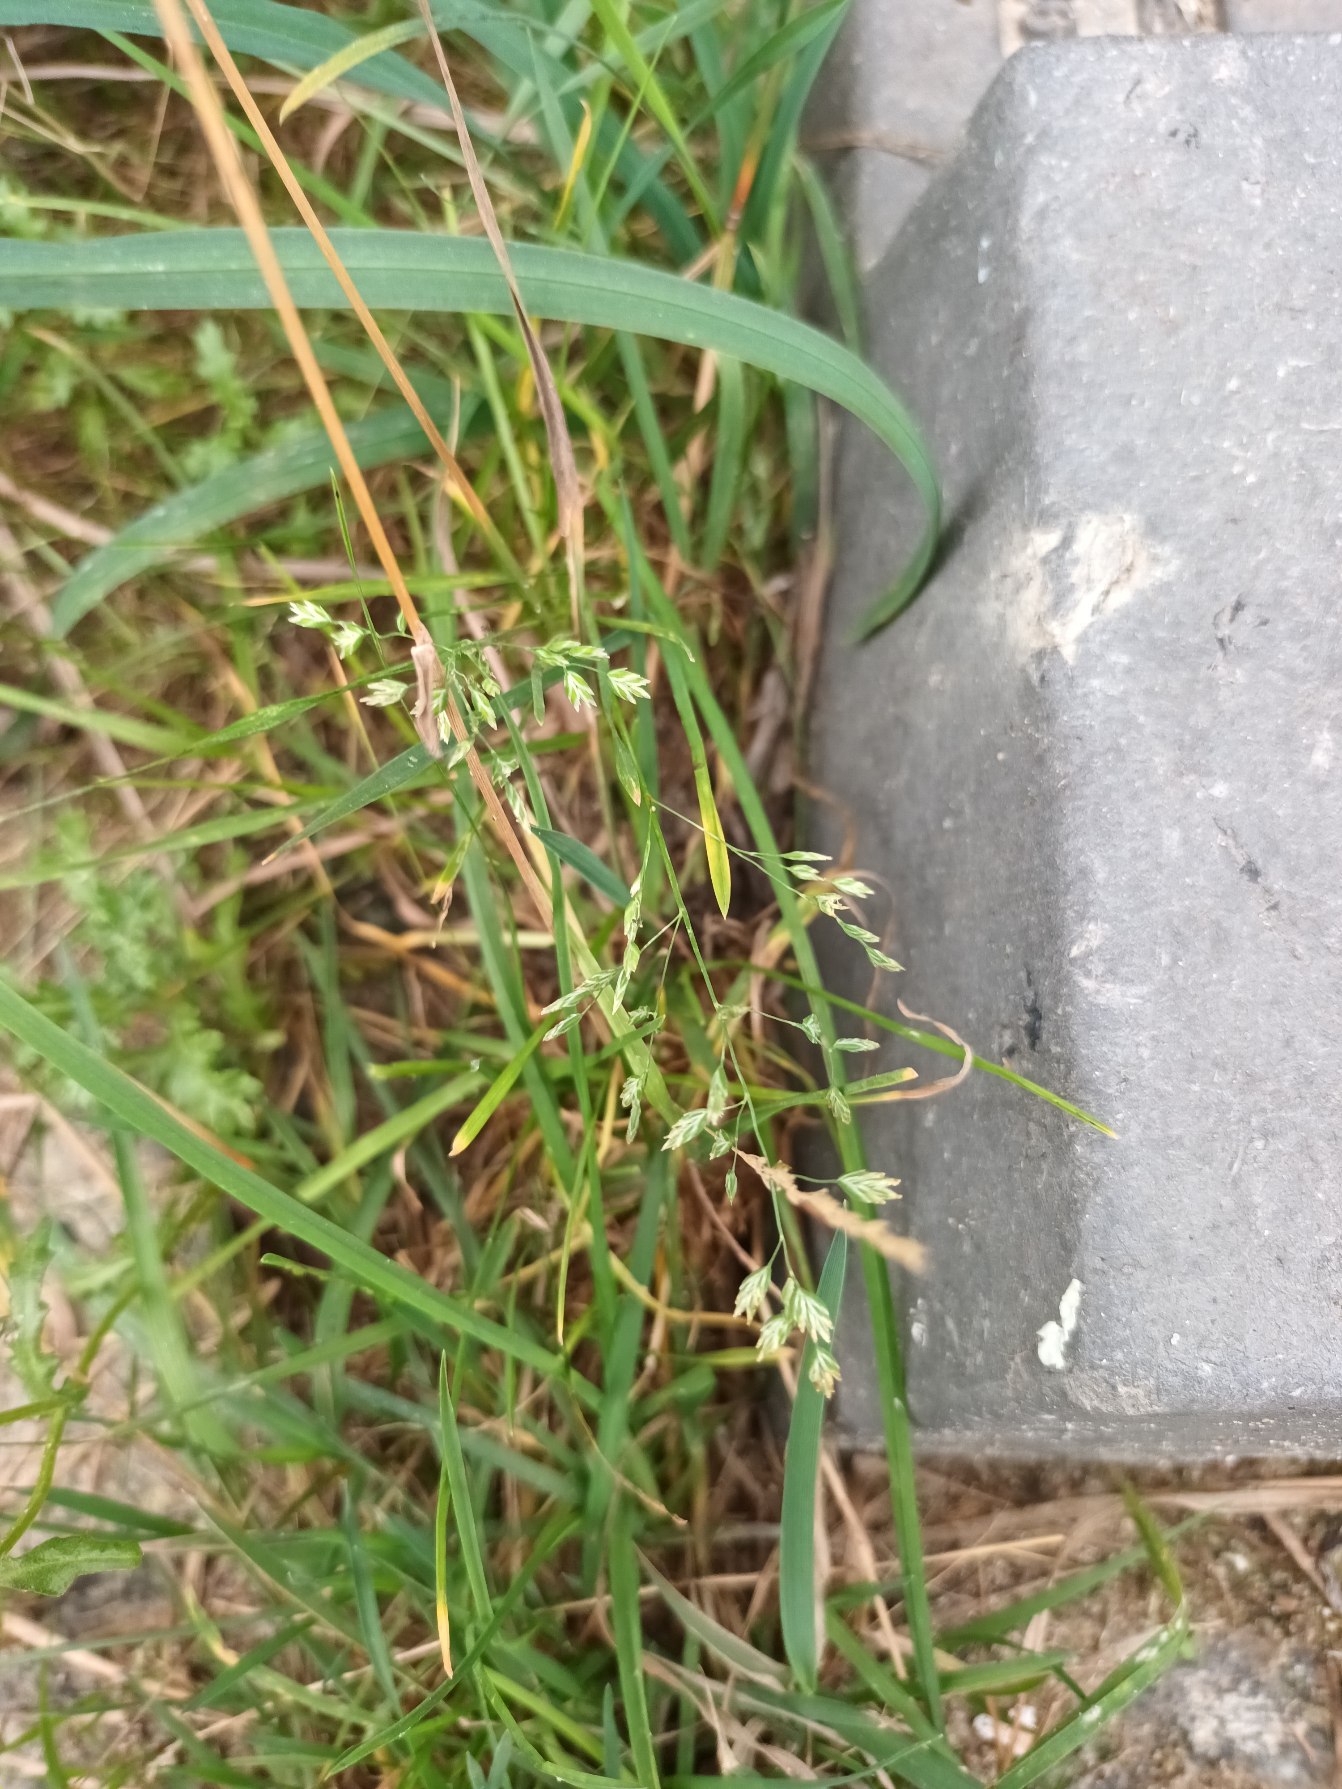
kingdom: Plantae
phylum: Tracheophyta
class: Liliopsida
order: Poales
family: Poaceae
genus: Poa
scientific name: Poa annua
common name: Enårig rapgræs
